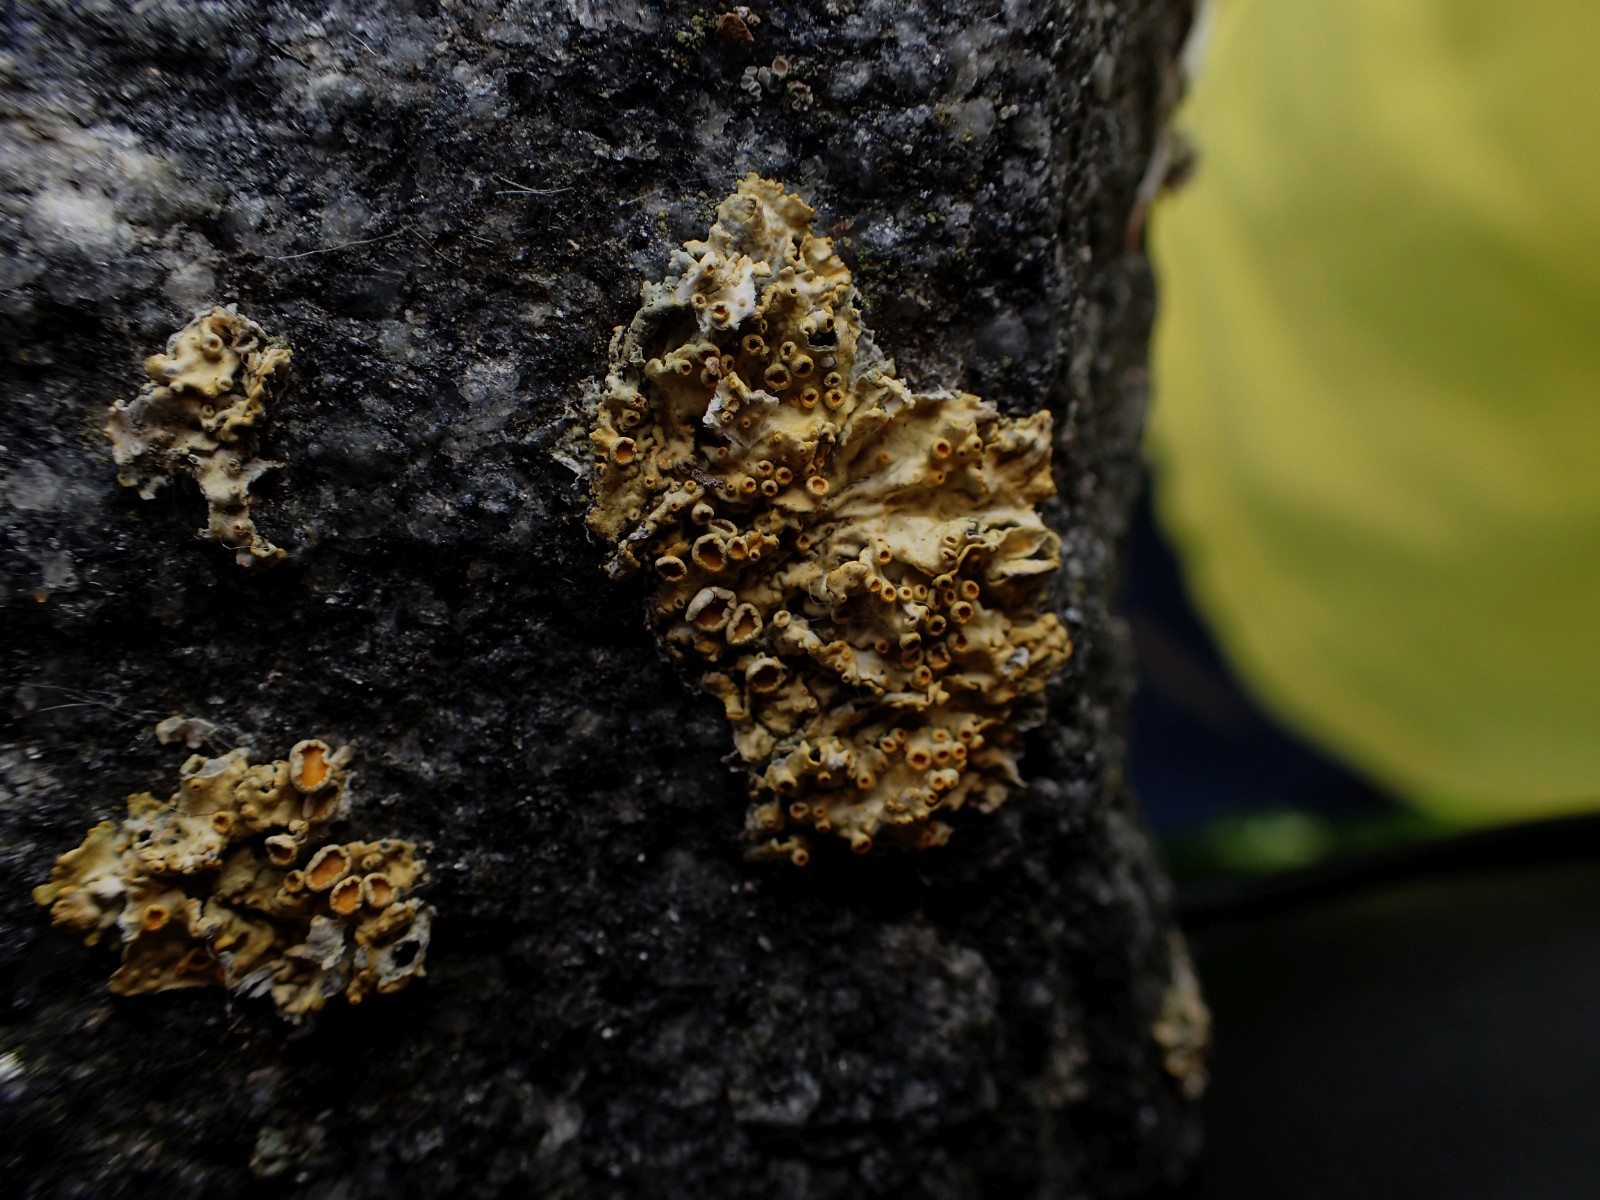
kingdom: Fungi
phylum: Ascomycota
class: Lecanoromycetes
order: Teloschistales
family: Teloschistaceae
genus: Xanthoria
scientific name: Xanthoria parietina
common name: almindelig væggelav
